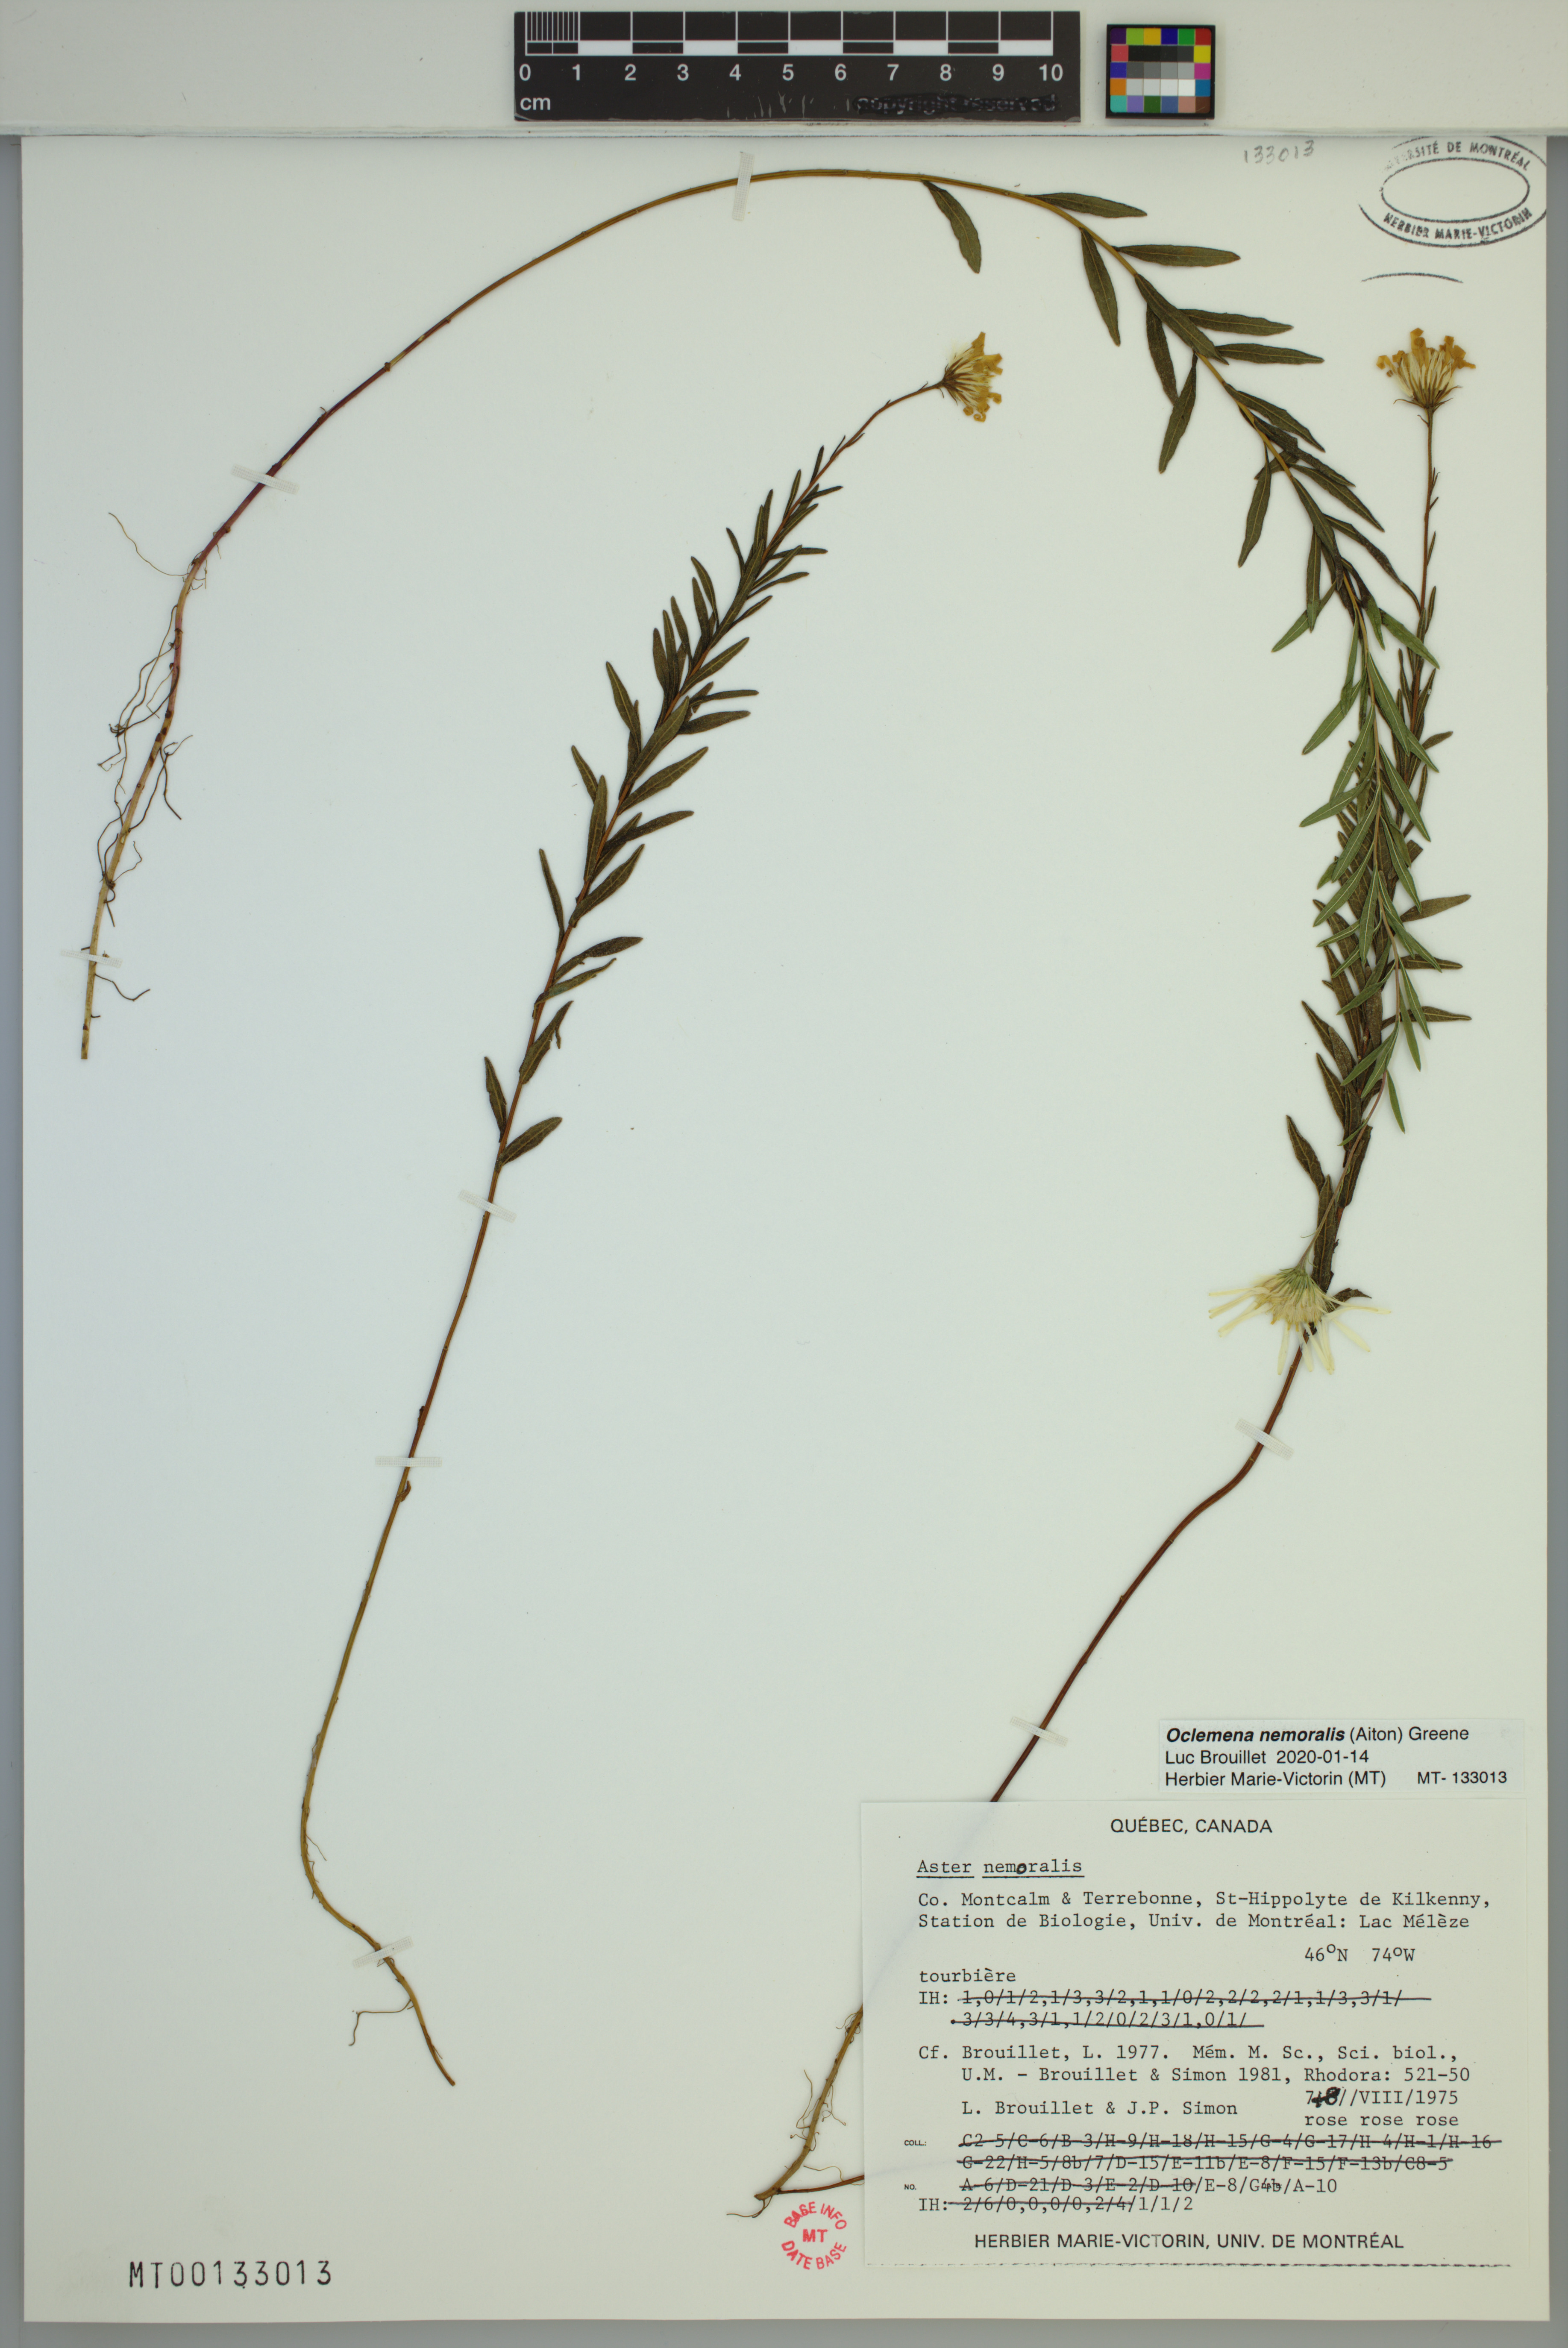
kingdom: Plantae
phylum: Tracheophyta
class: Magnoliopsida
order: Asterales
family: Asteraceae
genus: Oclemena
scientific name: Oclemena nemoralis
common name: Bog aster
